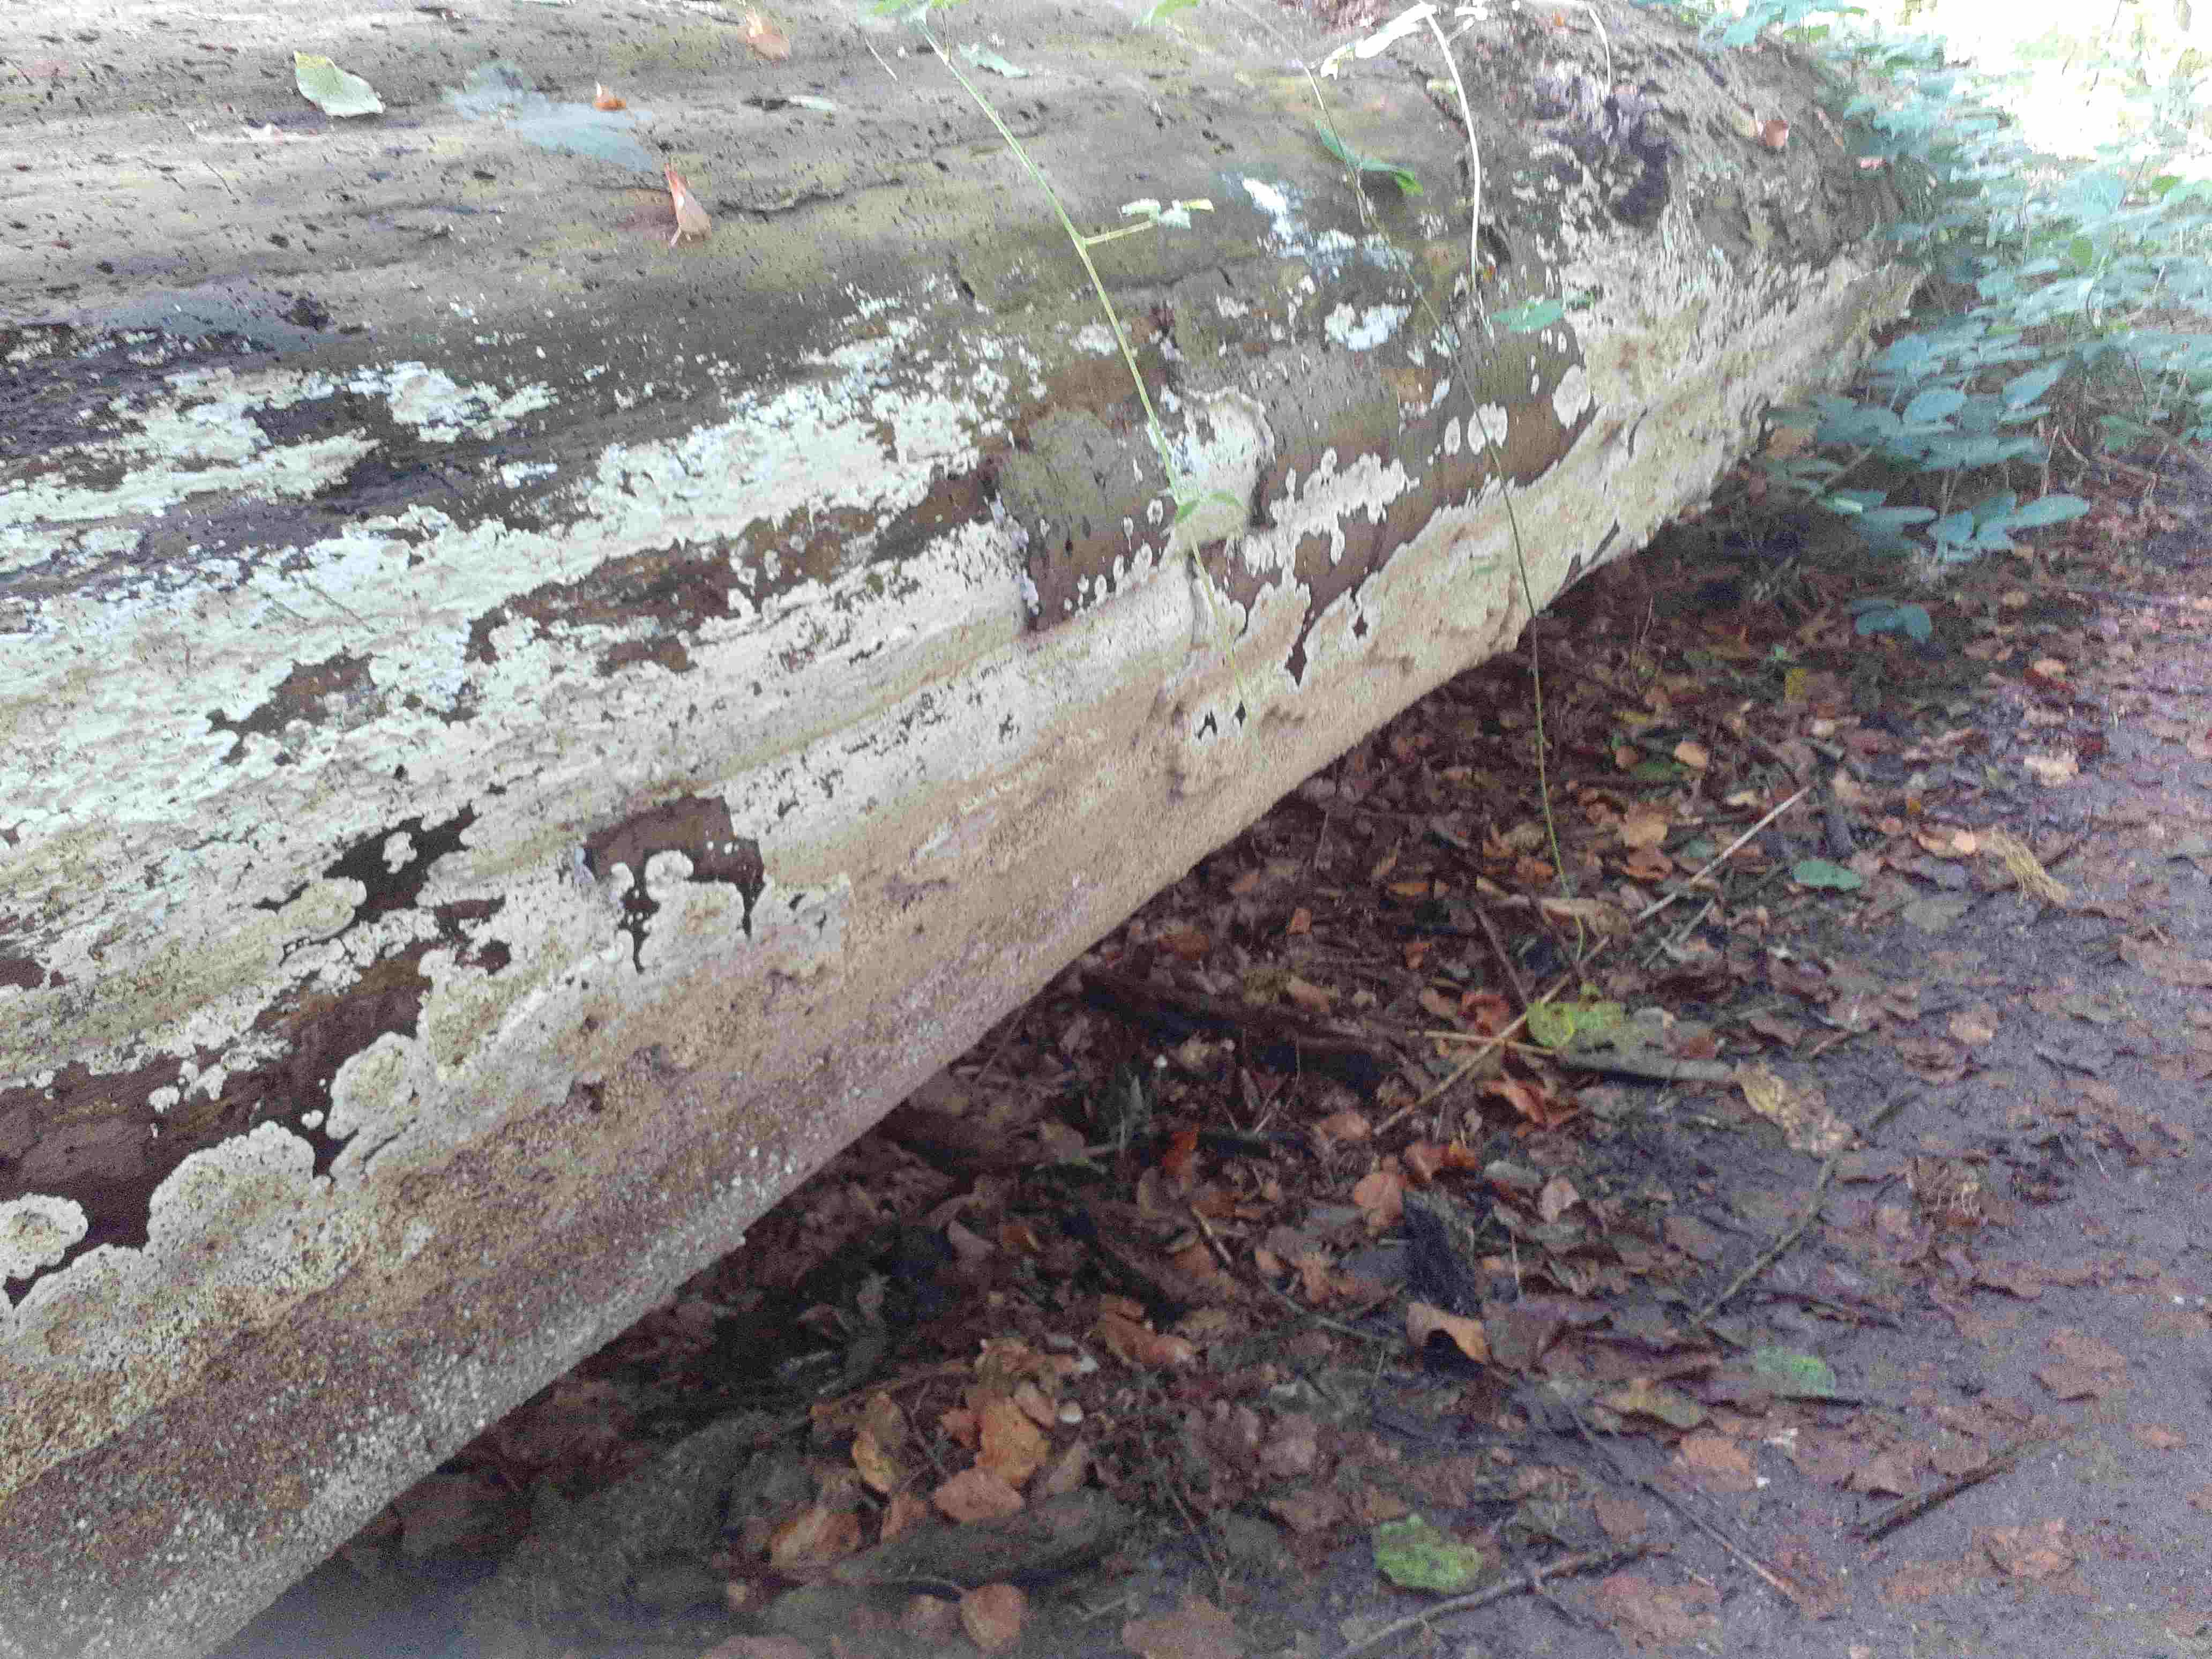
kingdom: Fungi
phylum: Basidiomycota
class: Agaricomycetes
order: Polyporales
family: Irpicaceae
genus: Gloeoporus
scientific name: Gloeoporus pannocinctus
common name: grøngul foldporesvamp
